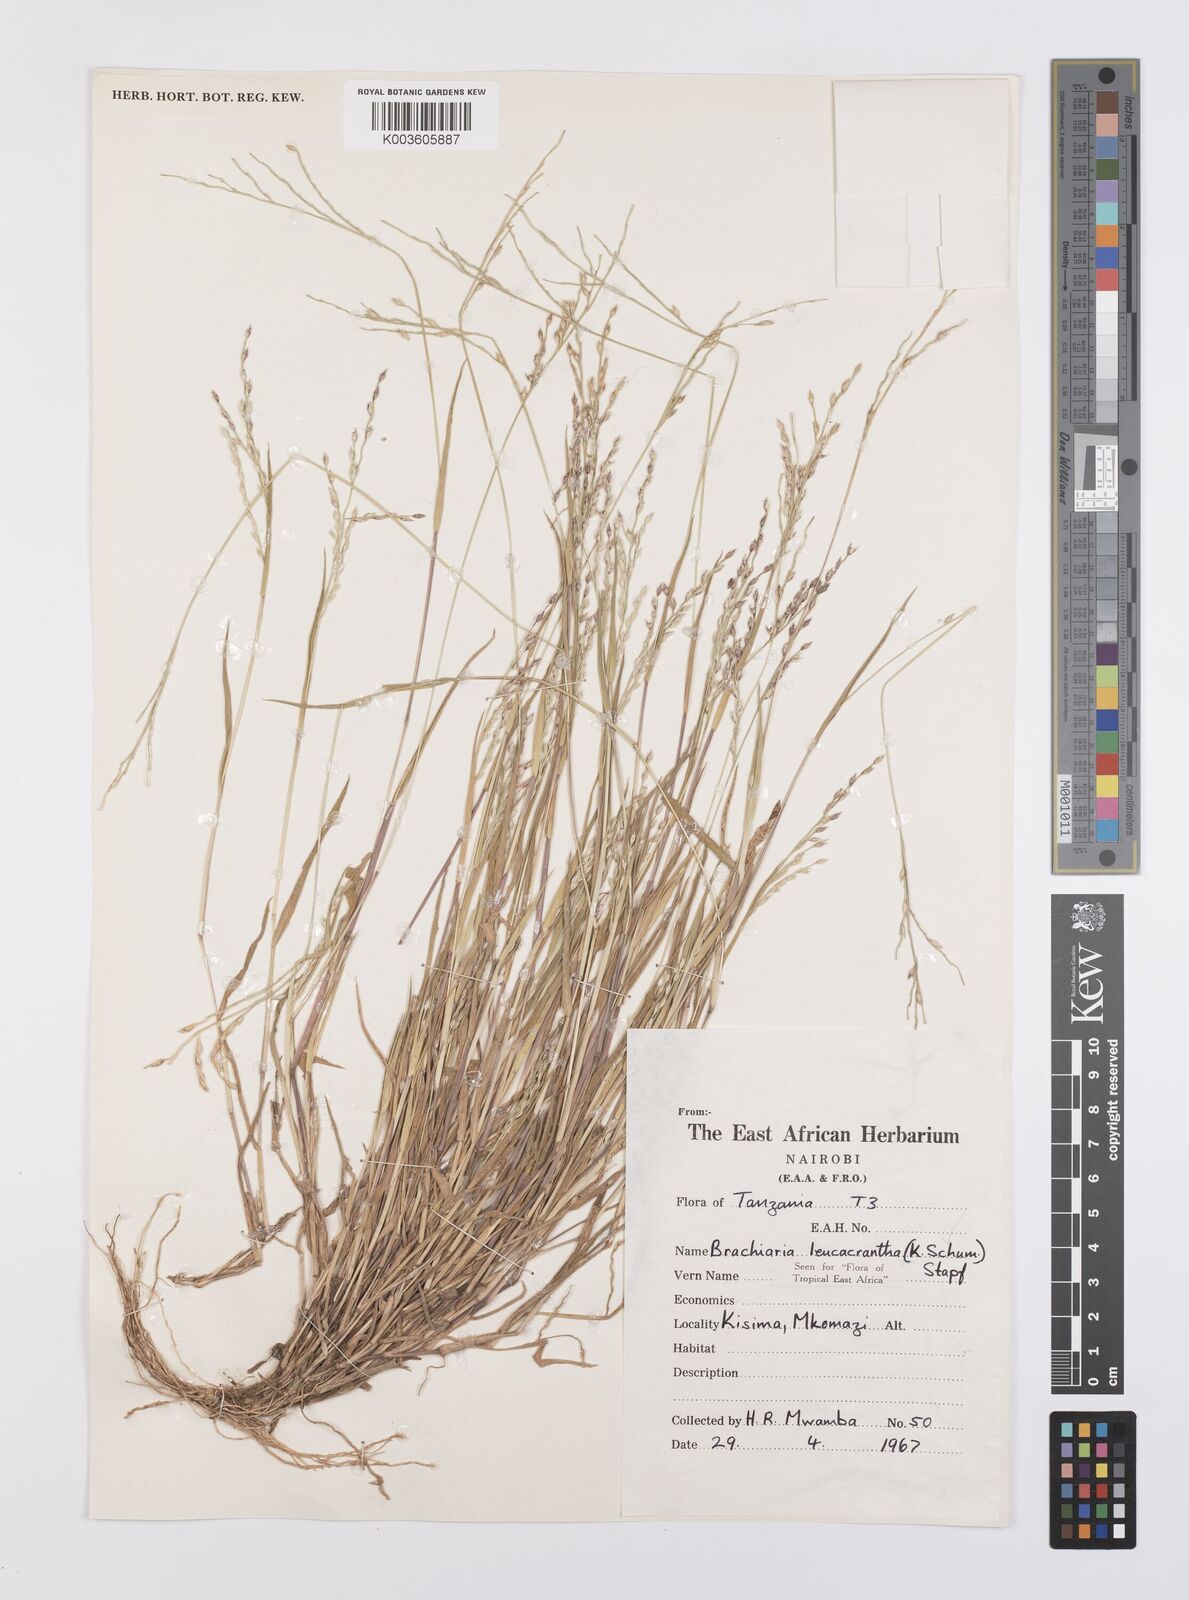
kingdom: Plantae
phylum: Tracheophyta
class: Liliopsida
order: Poales
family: Poaceae
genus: Urochloa
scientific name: Urochloa xantholeuca
